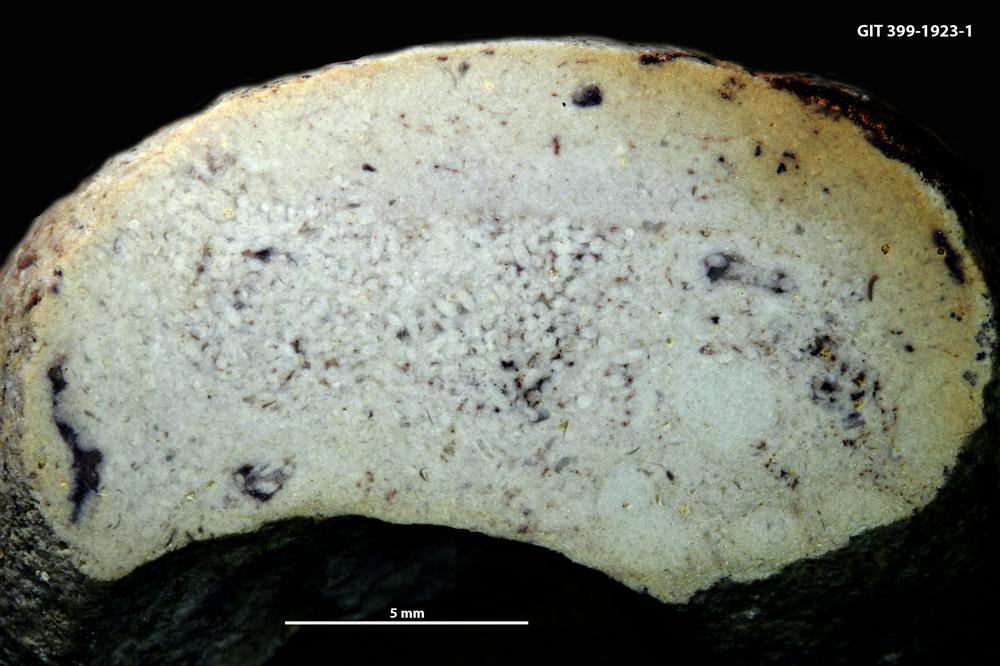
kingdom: Animalia
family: Coprulidae
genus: Coprulus
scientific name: Coprulus
